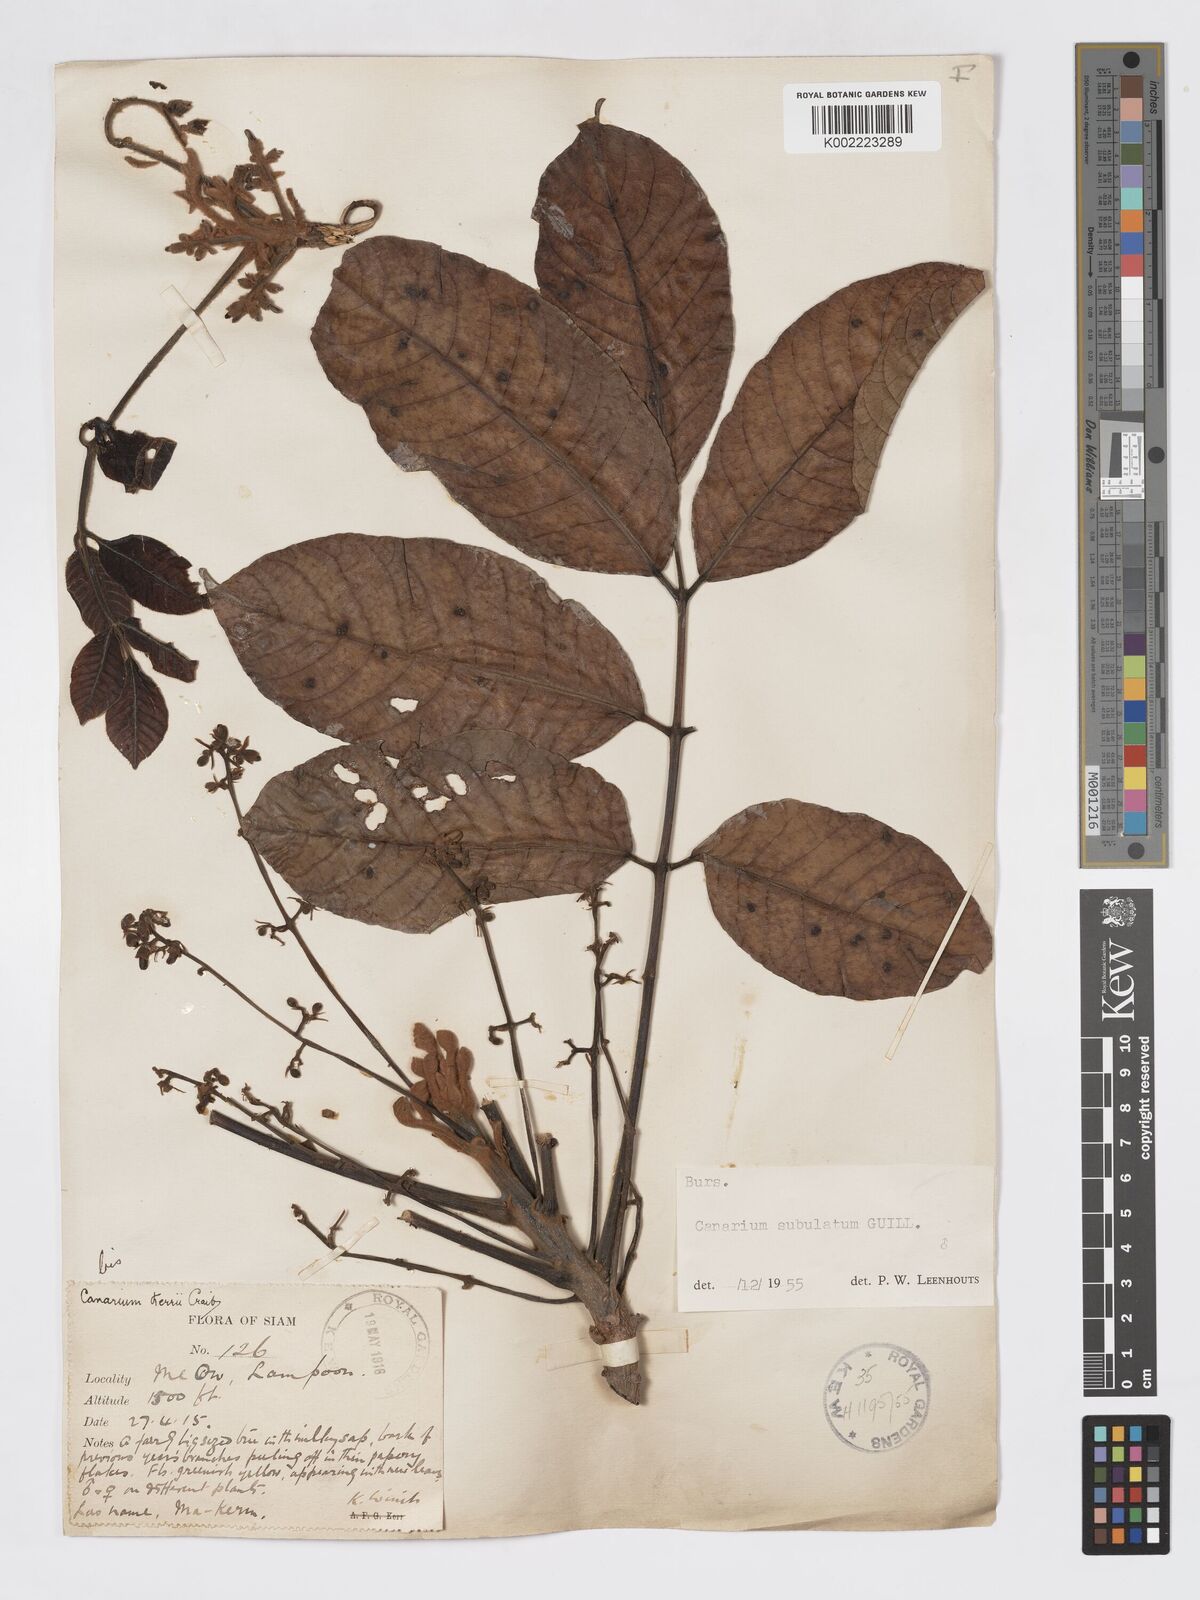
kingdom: Plantae
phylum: Tracheophyta
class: Magnoliopsida
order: Sapindales
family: Burseraceae
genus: Canarium
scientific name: Canarium subulatum
